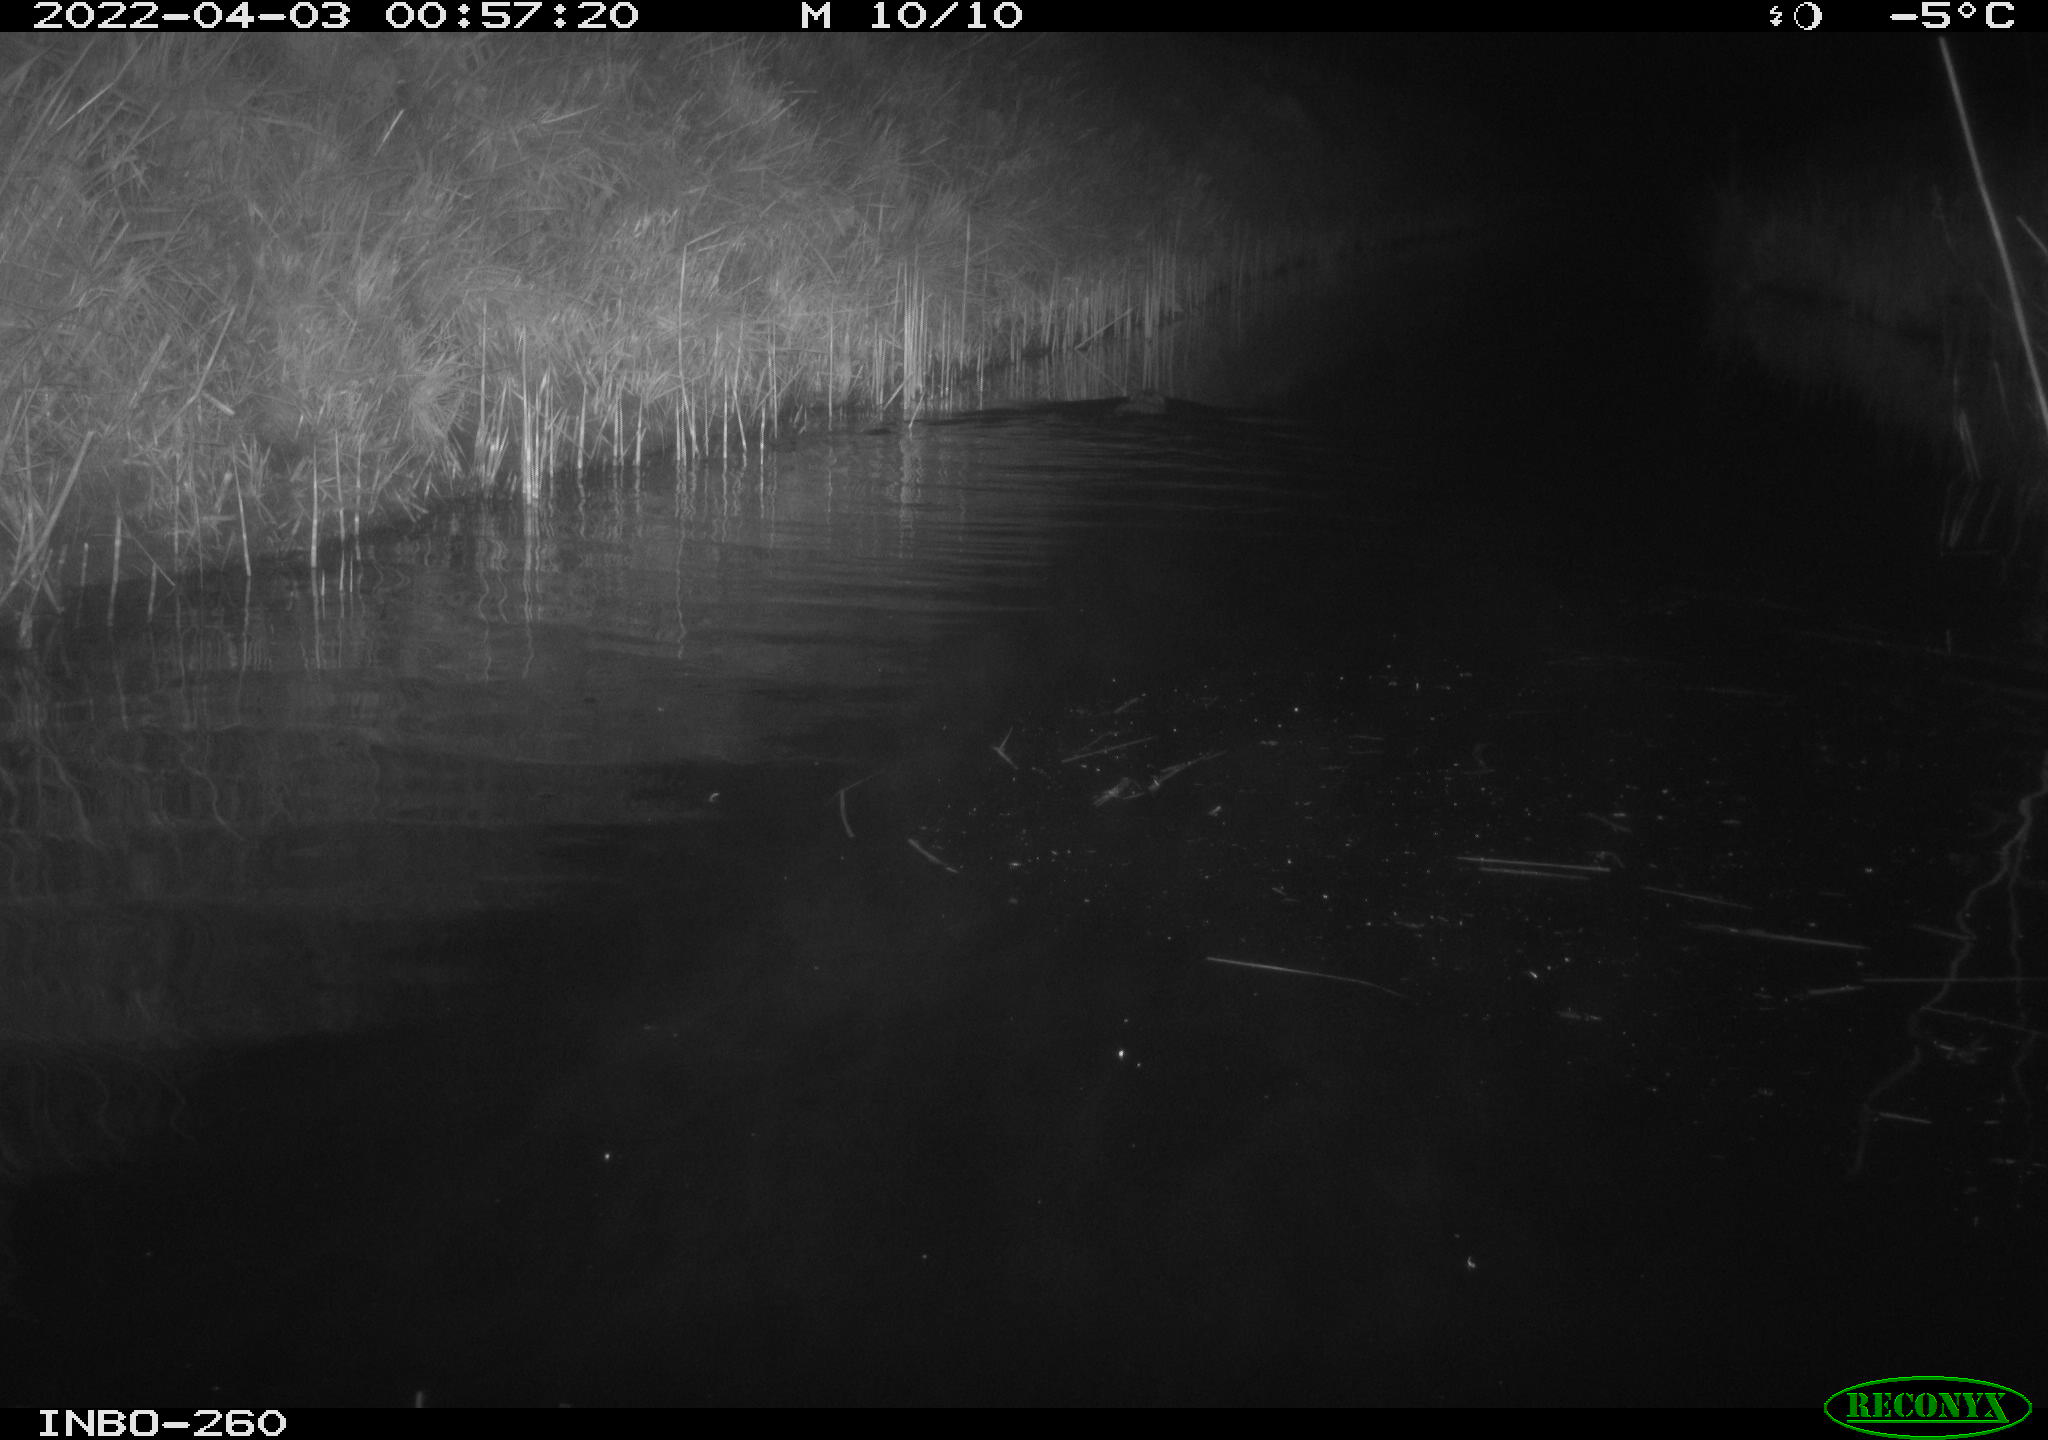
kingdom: Animalia
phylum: Chordata
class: Mammalia
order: Rodentia
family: Cricetidae
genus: Ondatra
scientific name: Ondatra zibethicus
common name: Muskrat
